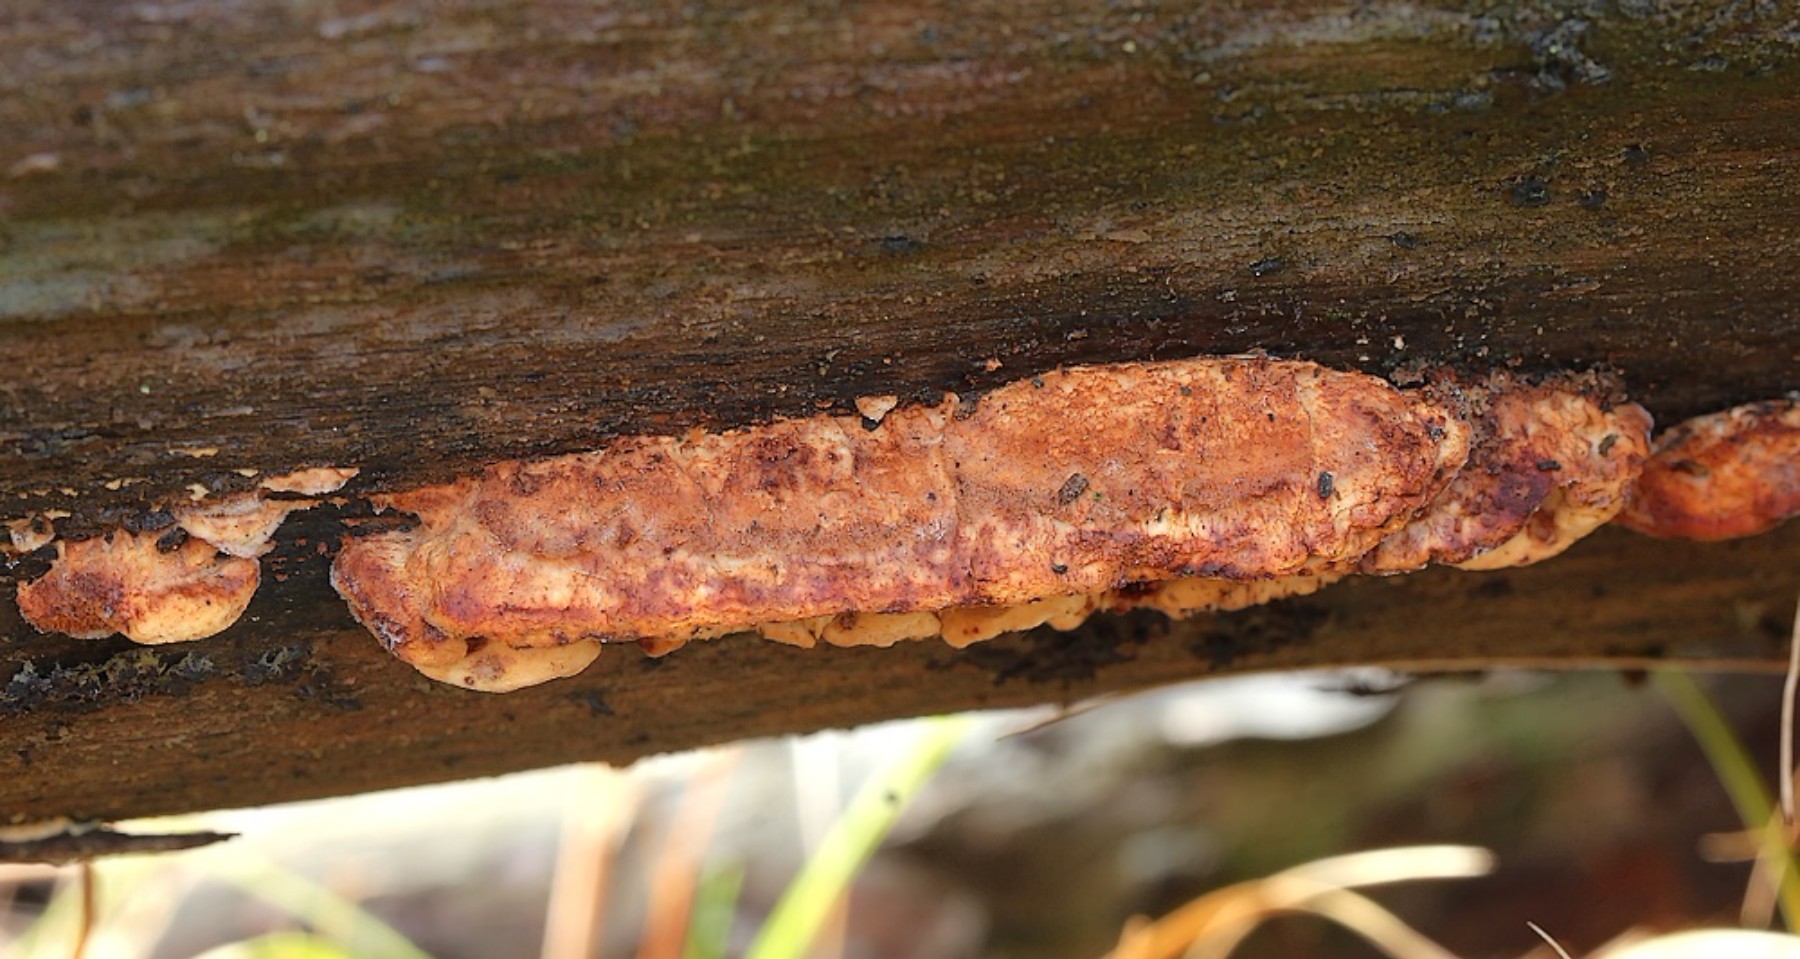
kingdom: Fungi
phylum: Basidiomycota
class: Agaricomycetes
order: Polyporales
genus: Fuscopostia
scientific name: Fuscopostia fragilis
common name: brunende kødporesvamp
